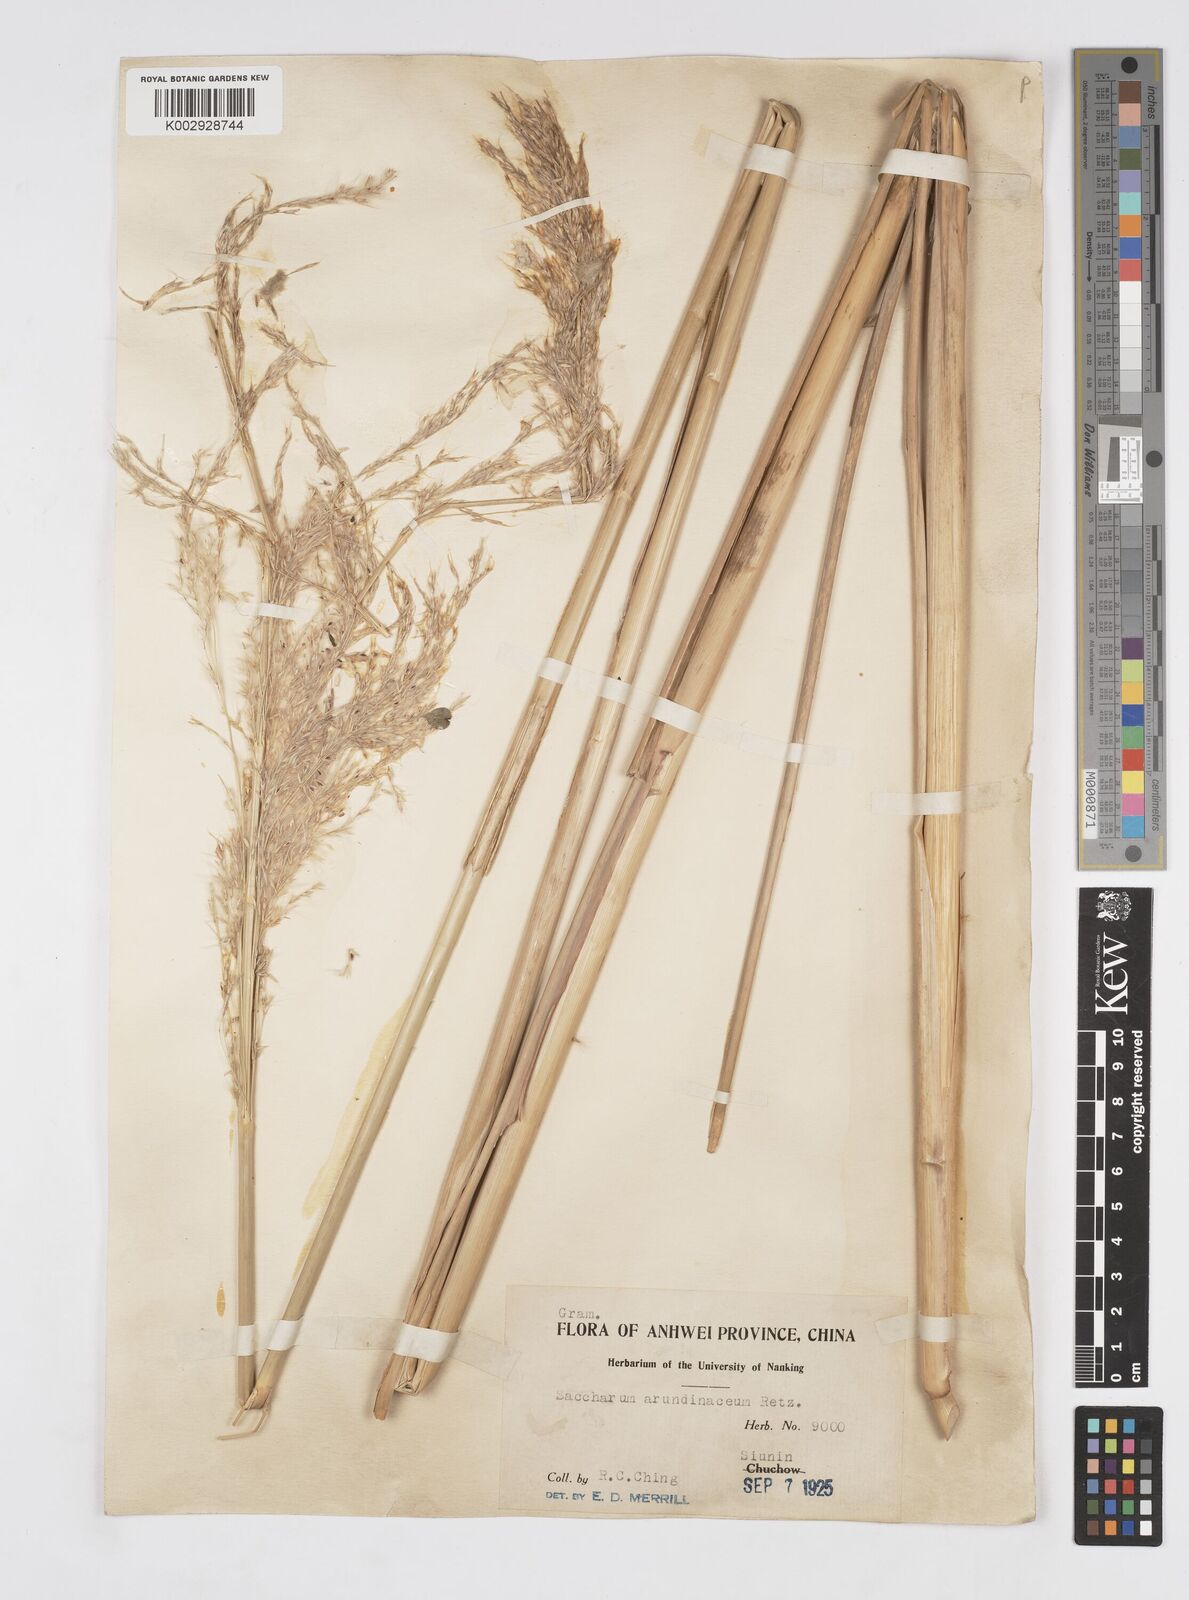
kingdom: Plantae
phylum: Tracheophyta
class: Liliopsida
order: Poales
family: Poaceae
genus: Tripidium
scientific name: Tripidium arundinaceum
